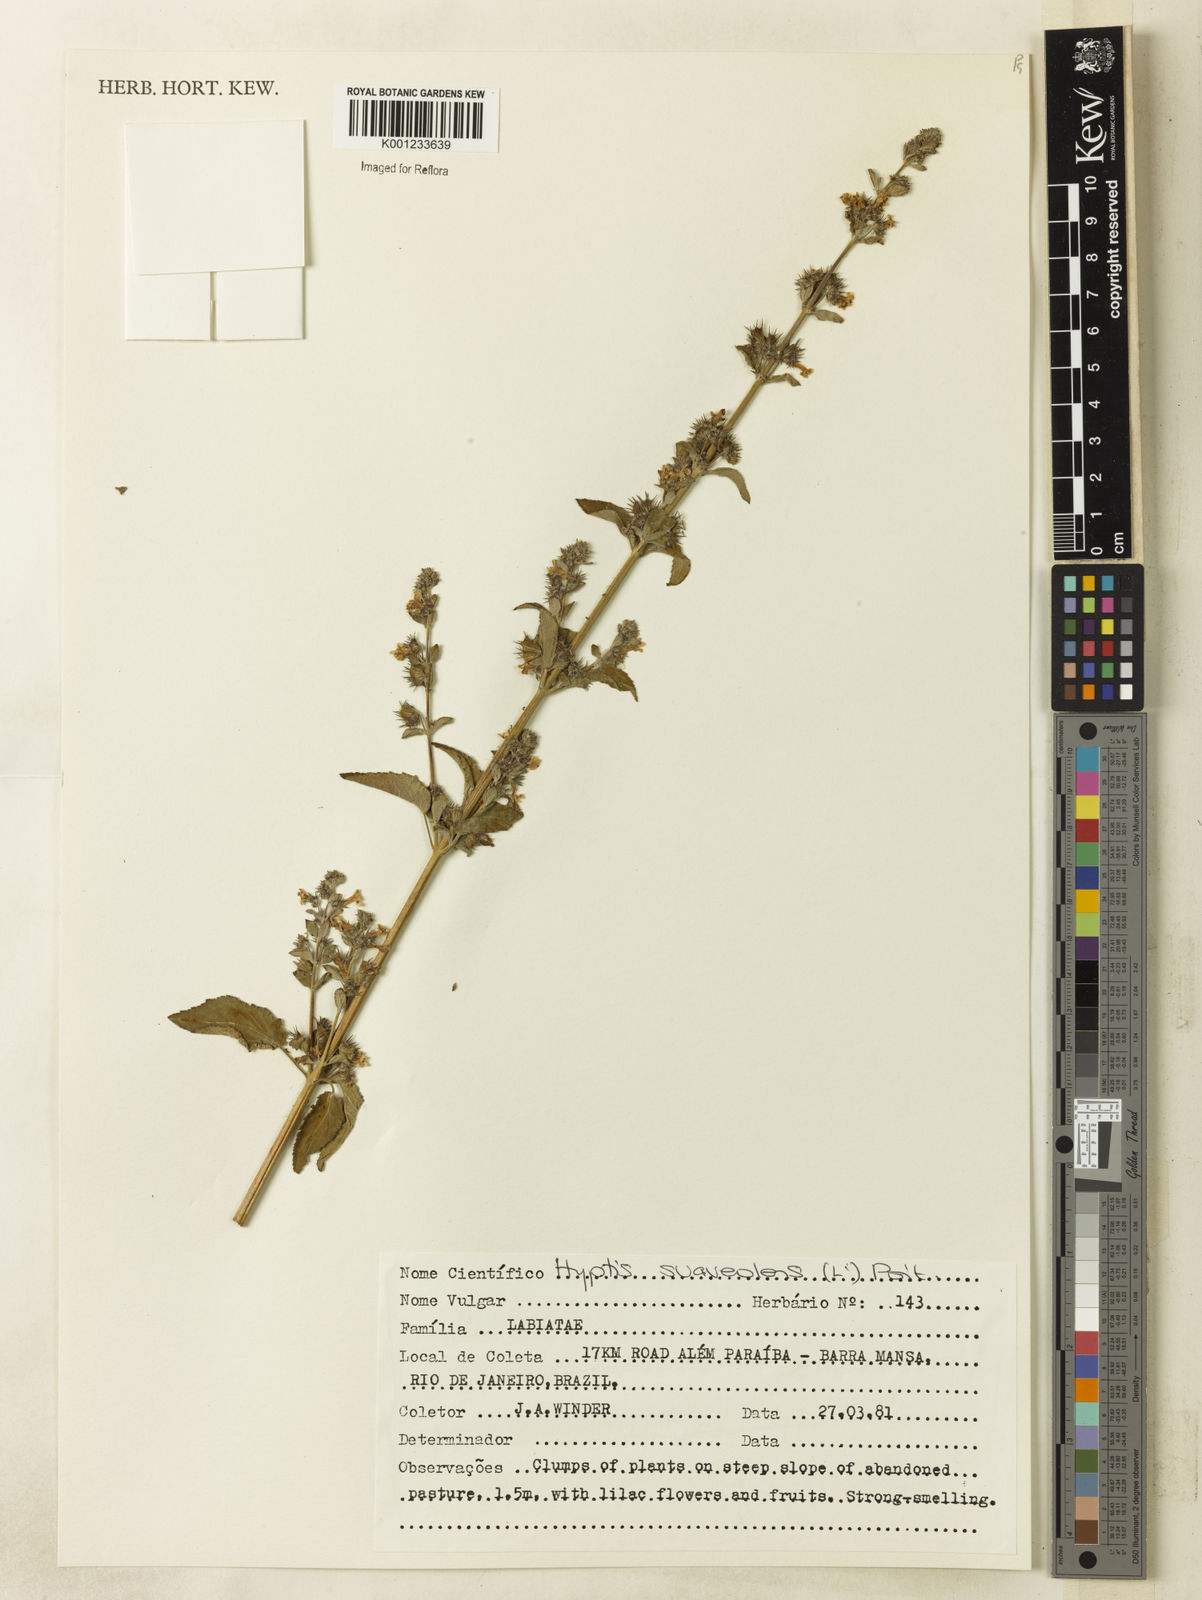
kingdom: Plantae
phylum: Tracheophyta
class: Magnoliopsida
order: Lamiales
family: Lamiaceae
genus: Mesosphaerum
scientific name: Mesosphaerum suaveolens
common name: Pignut
